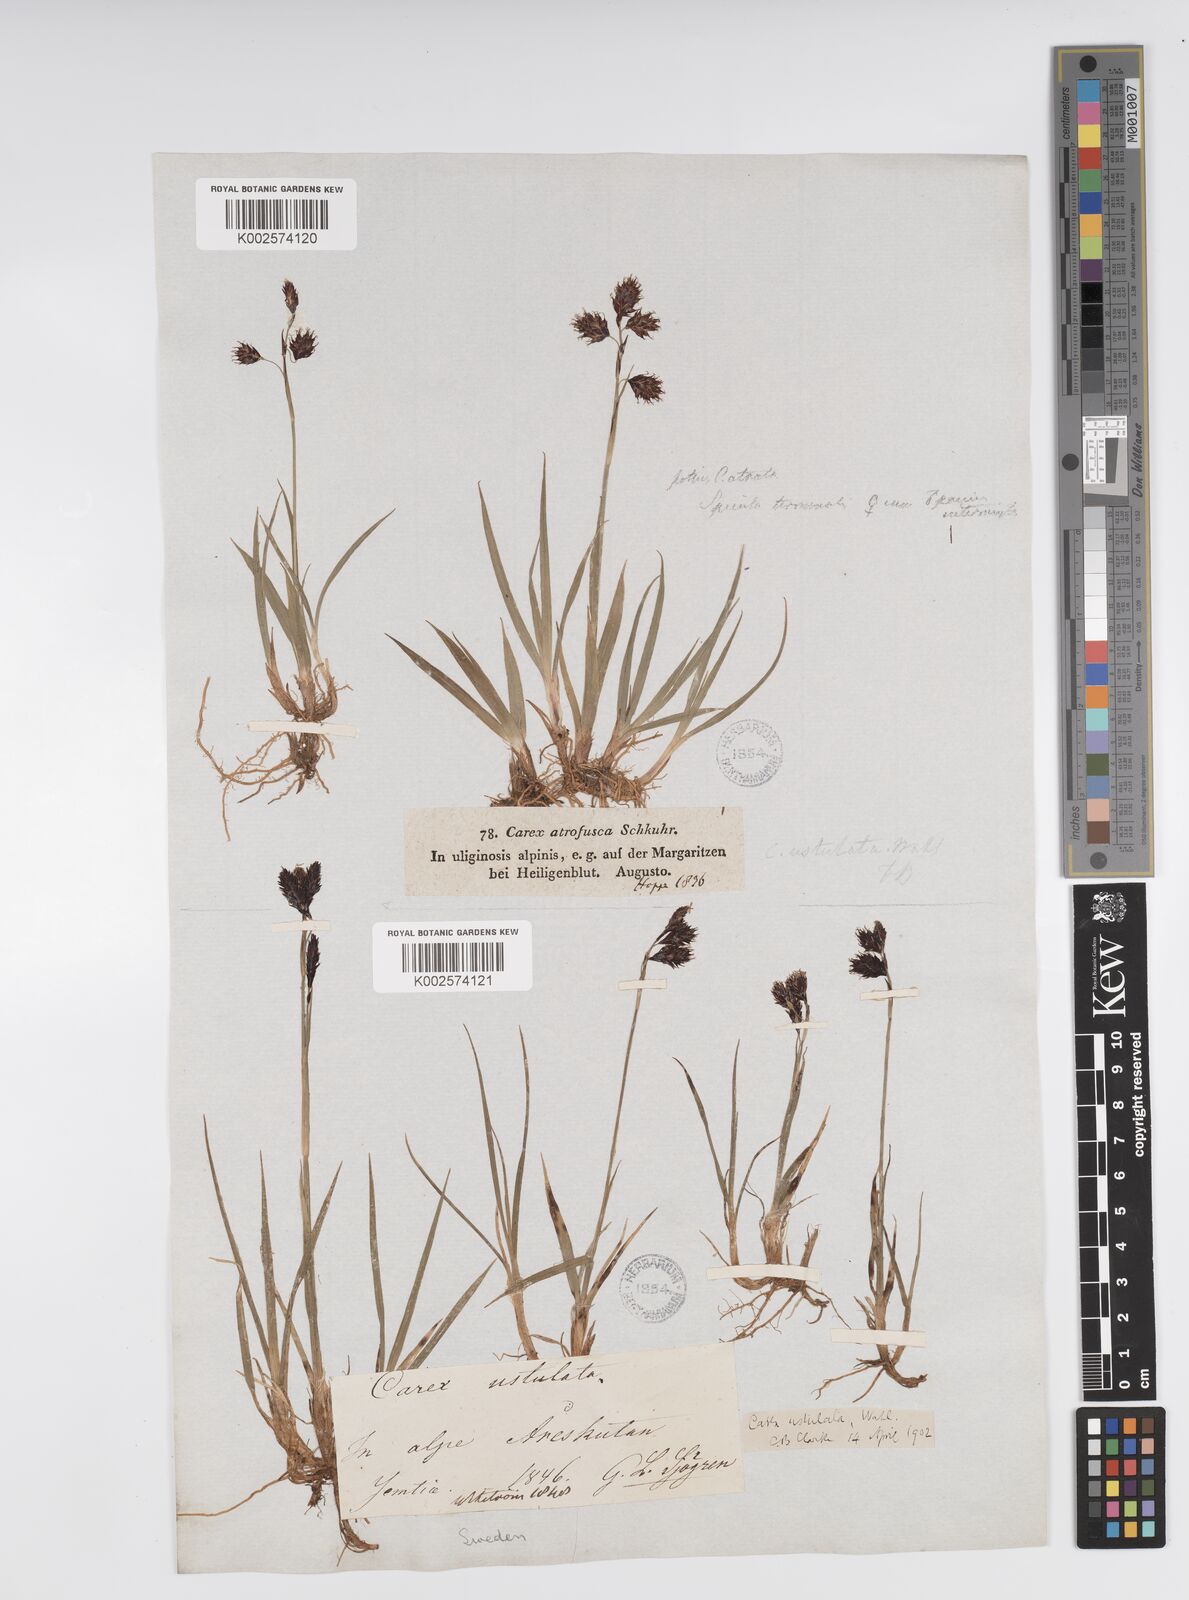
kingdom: Plantae
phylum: Tracheophyta
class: Liliopsida
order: Poales
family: Cyperaceae
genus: Carex
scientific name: Carex atrofusca
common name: Scorched alpine-sedge
